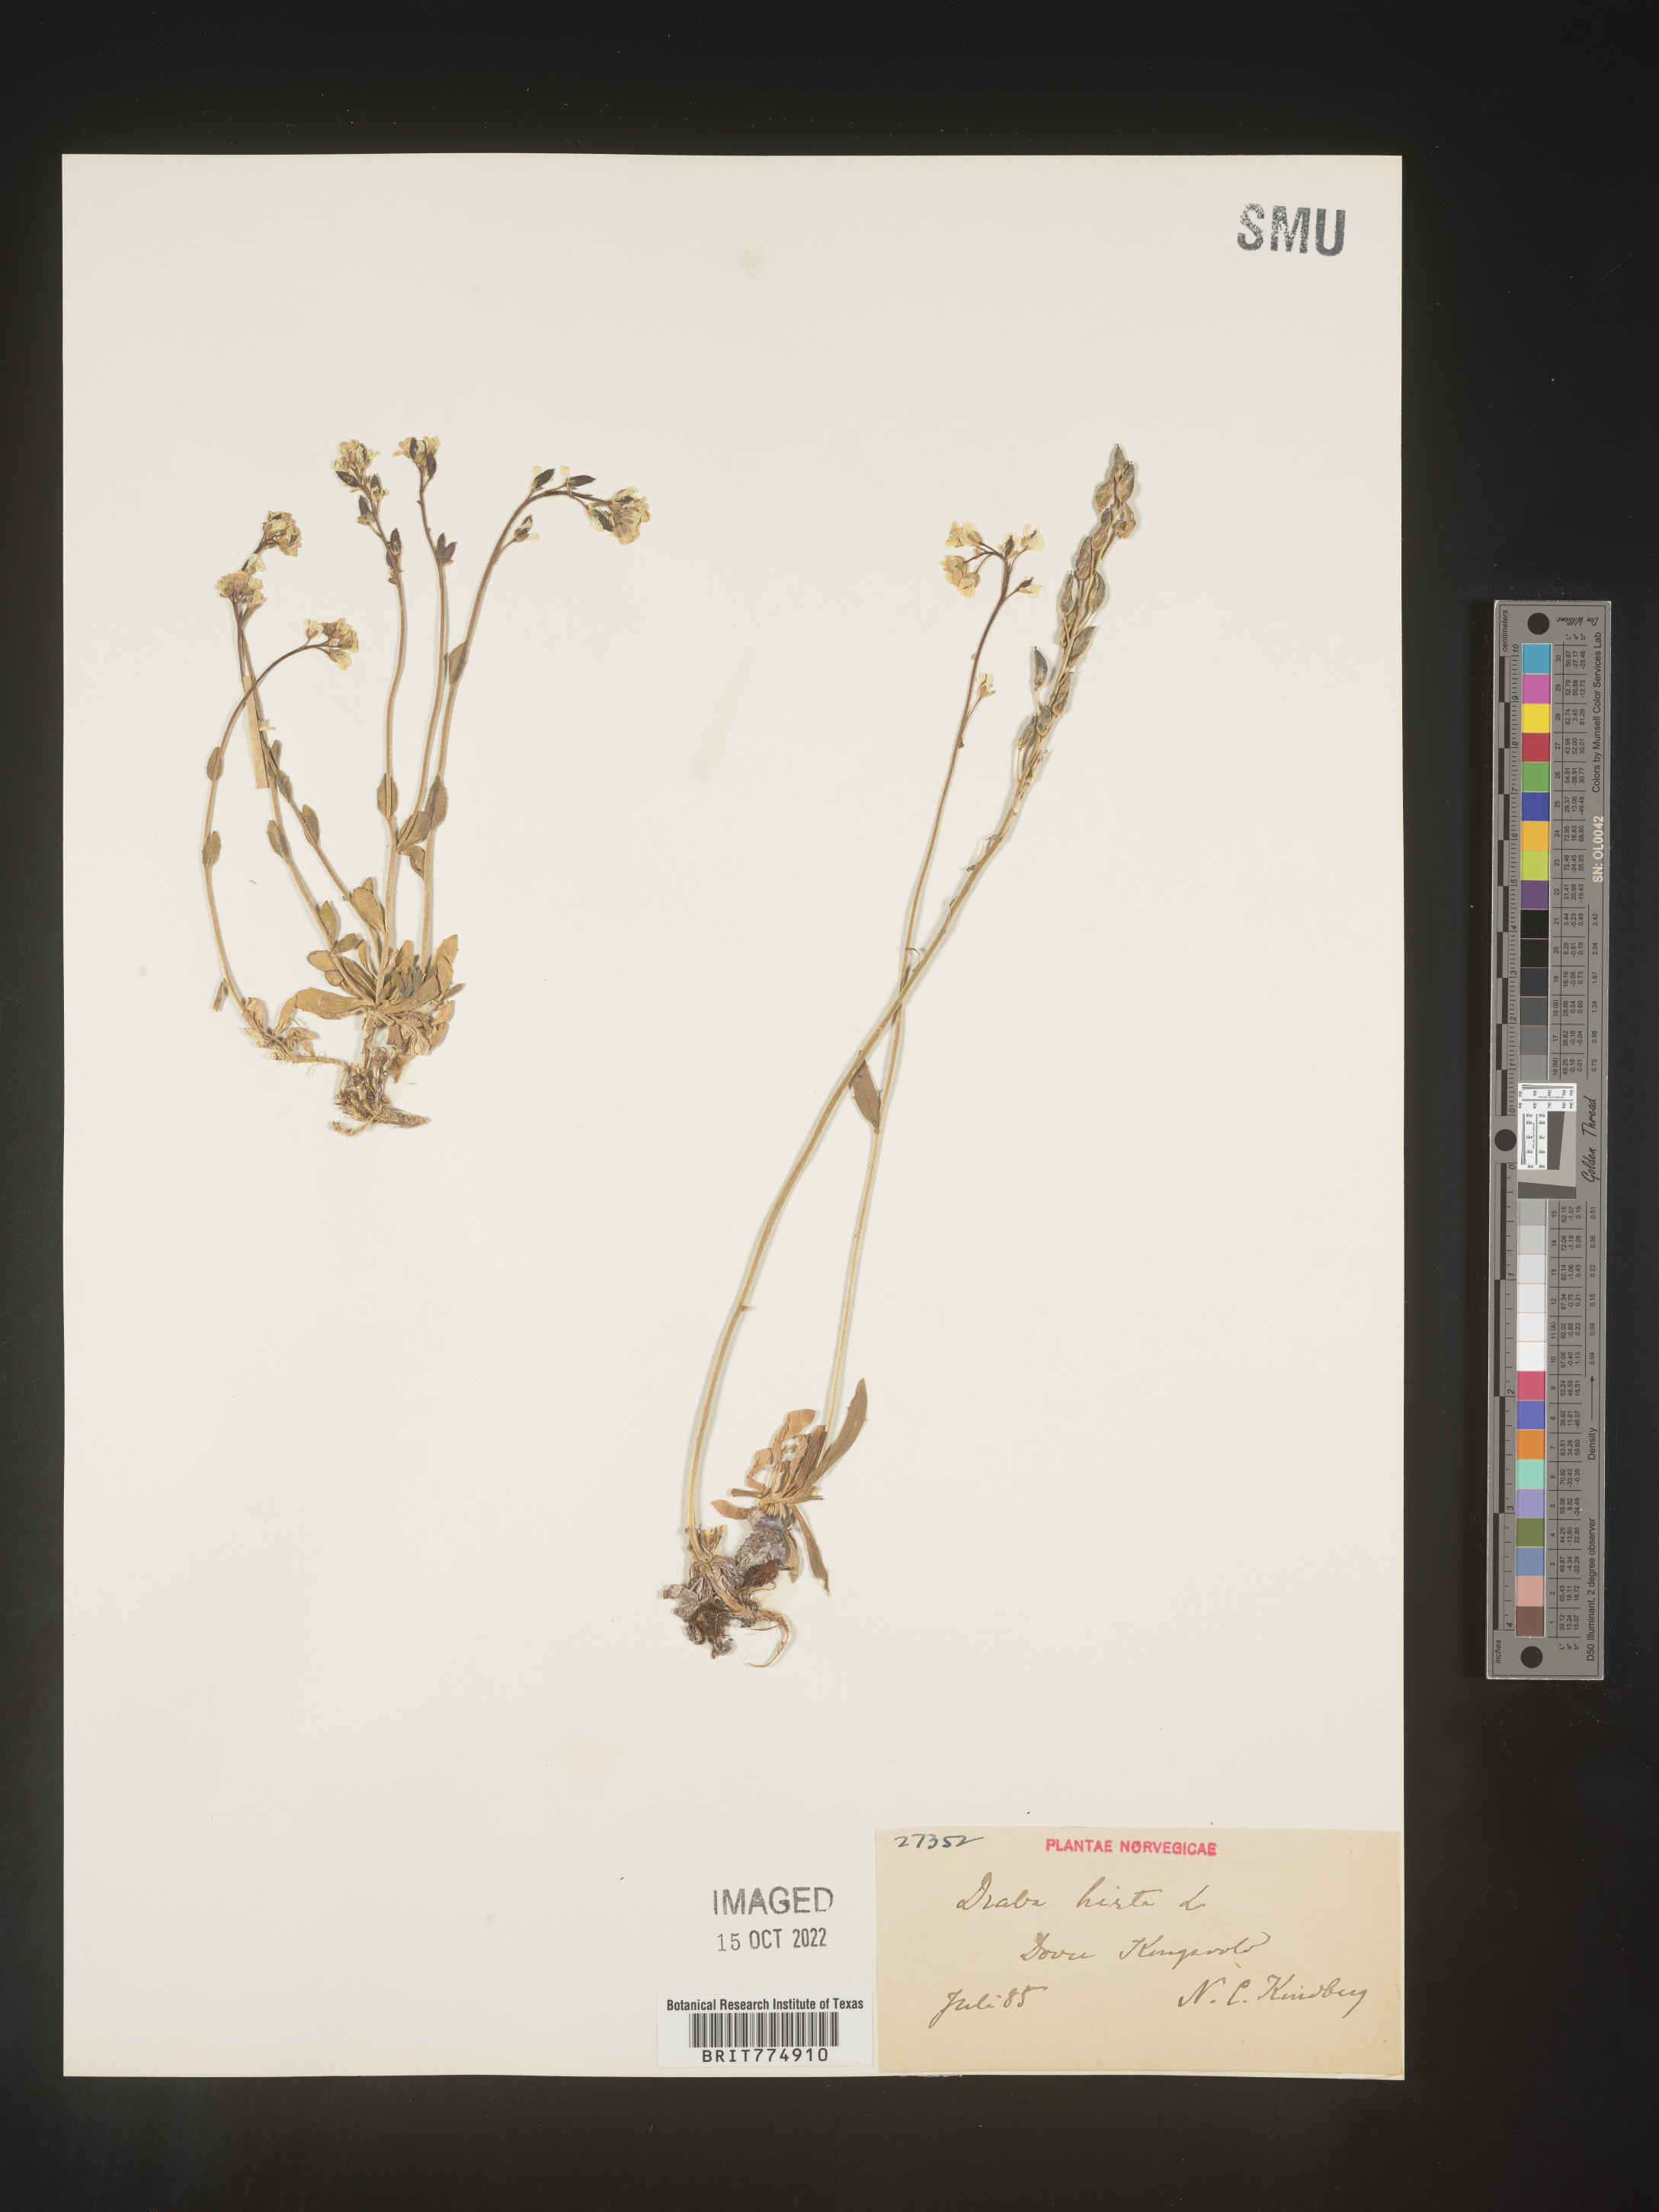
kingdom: Plantae
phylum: Tracheophyta
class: Magnoliopsida
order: Brassicales
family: Brassicaceae
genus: Draba
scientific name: Draba
